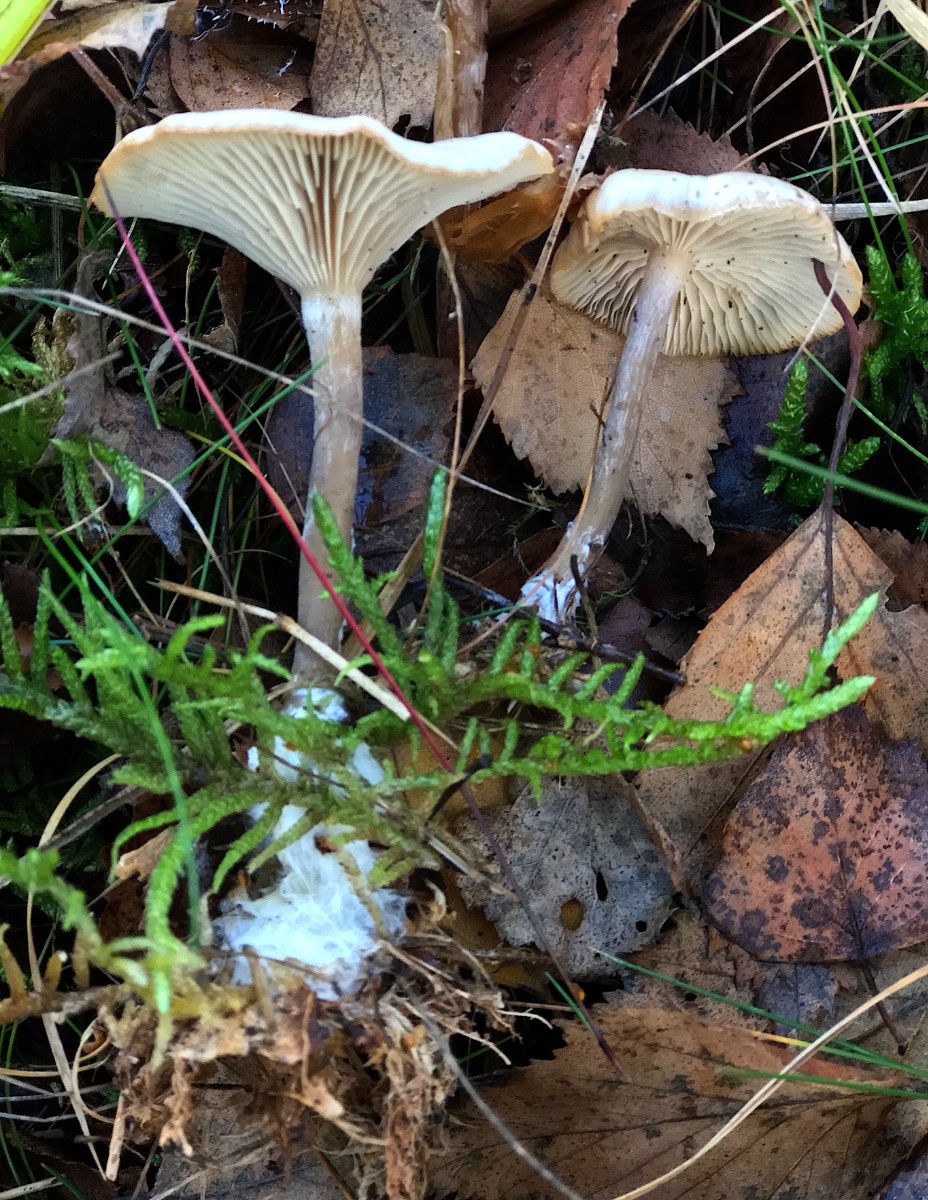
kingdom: Fungi
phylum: Basidiomycota
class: Agaricomycetes
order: Agaricales
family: Tricholomataceae
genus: Clitocybe
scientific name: Clitocybe metachroa
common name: grå tragthat
